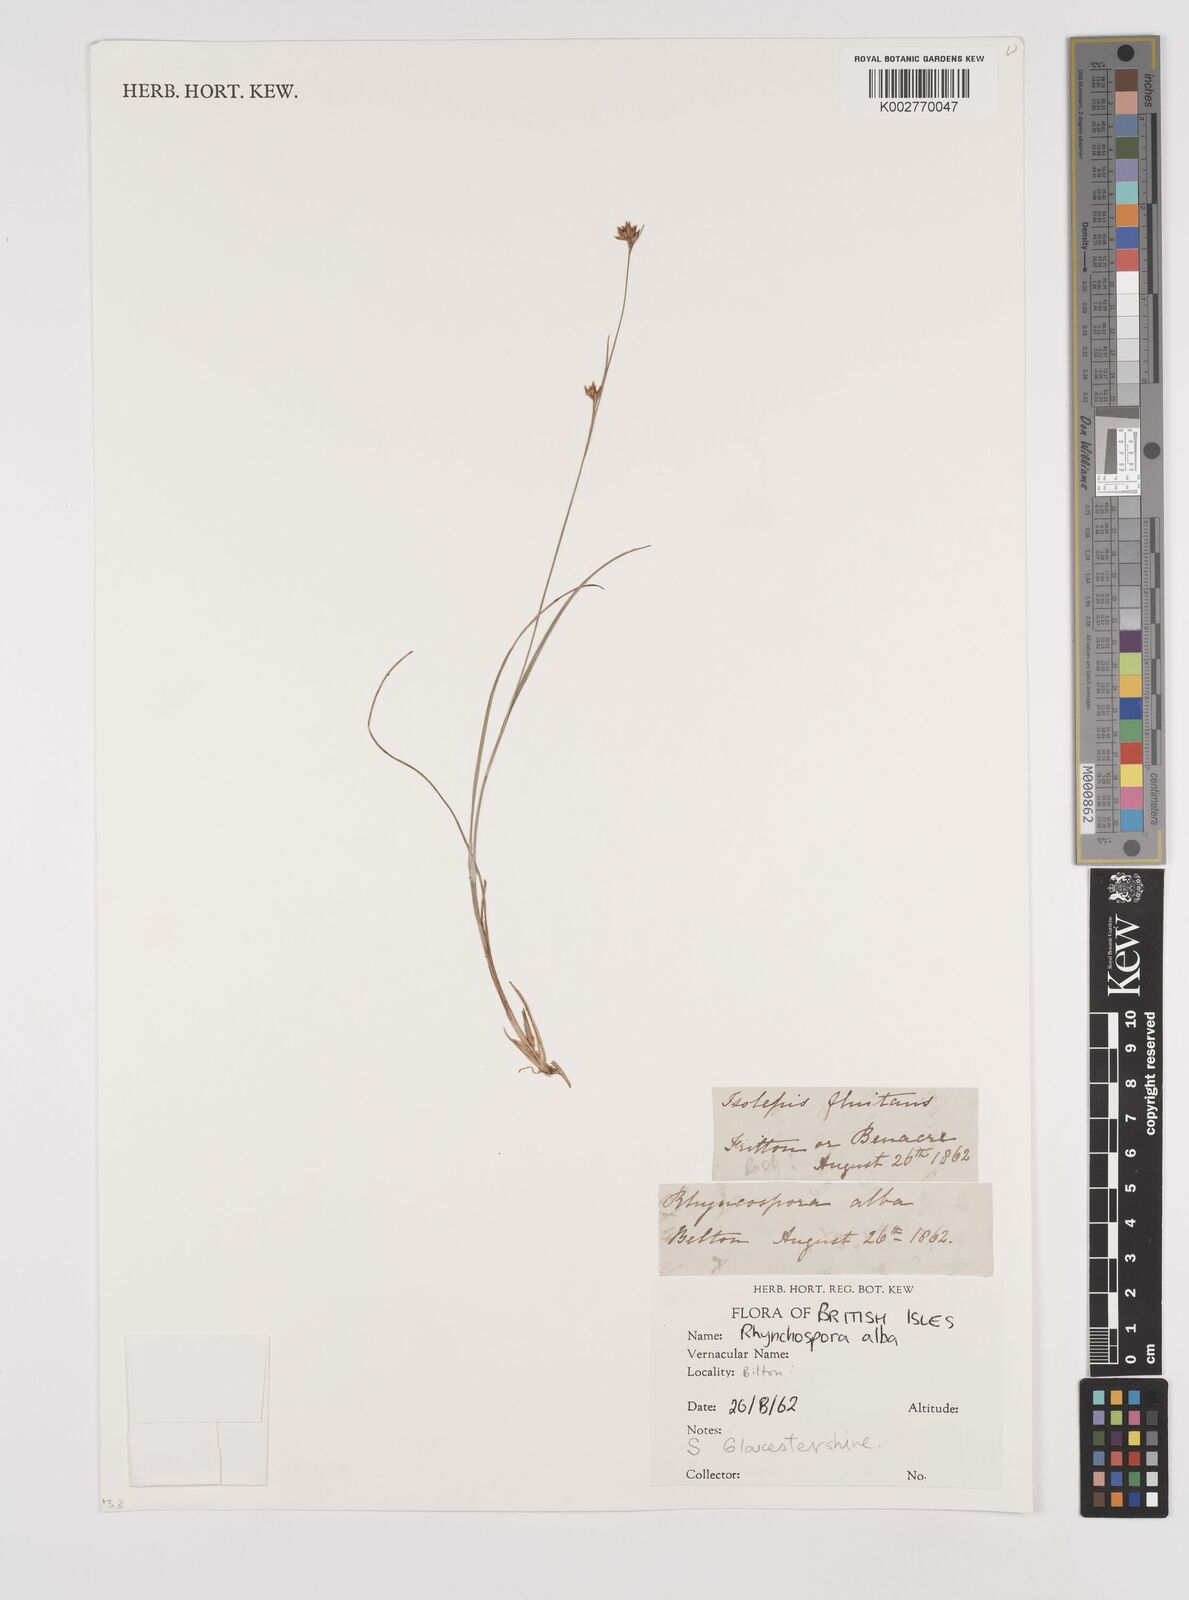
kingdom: Plantae
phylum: Tracheophyta
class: Liliopsida
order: Poales
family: Cyperaceae
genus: Rhynchospora
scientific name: Rhynchospora alba
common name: White beak-sedge
